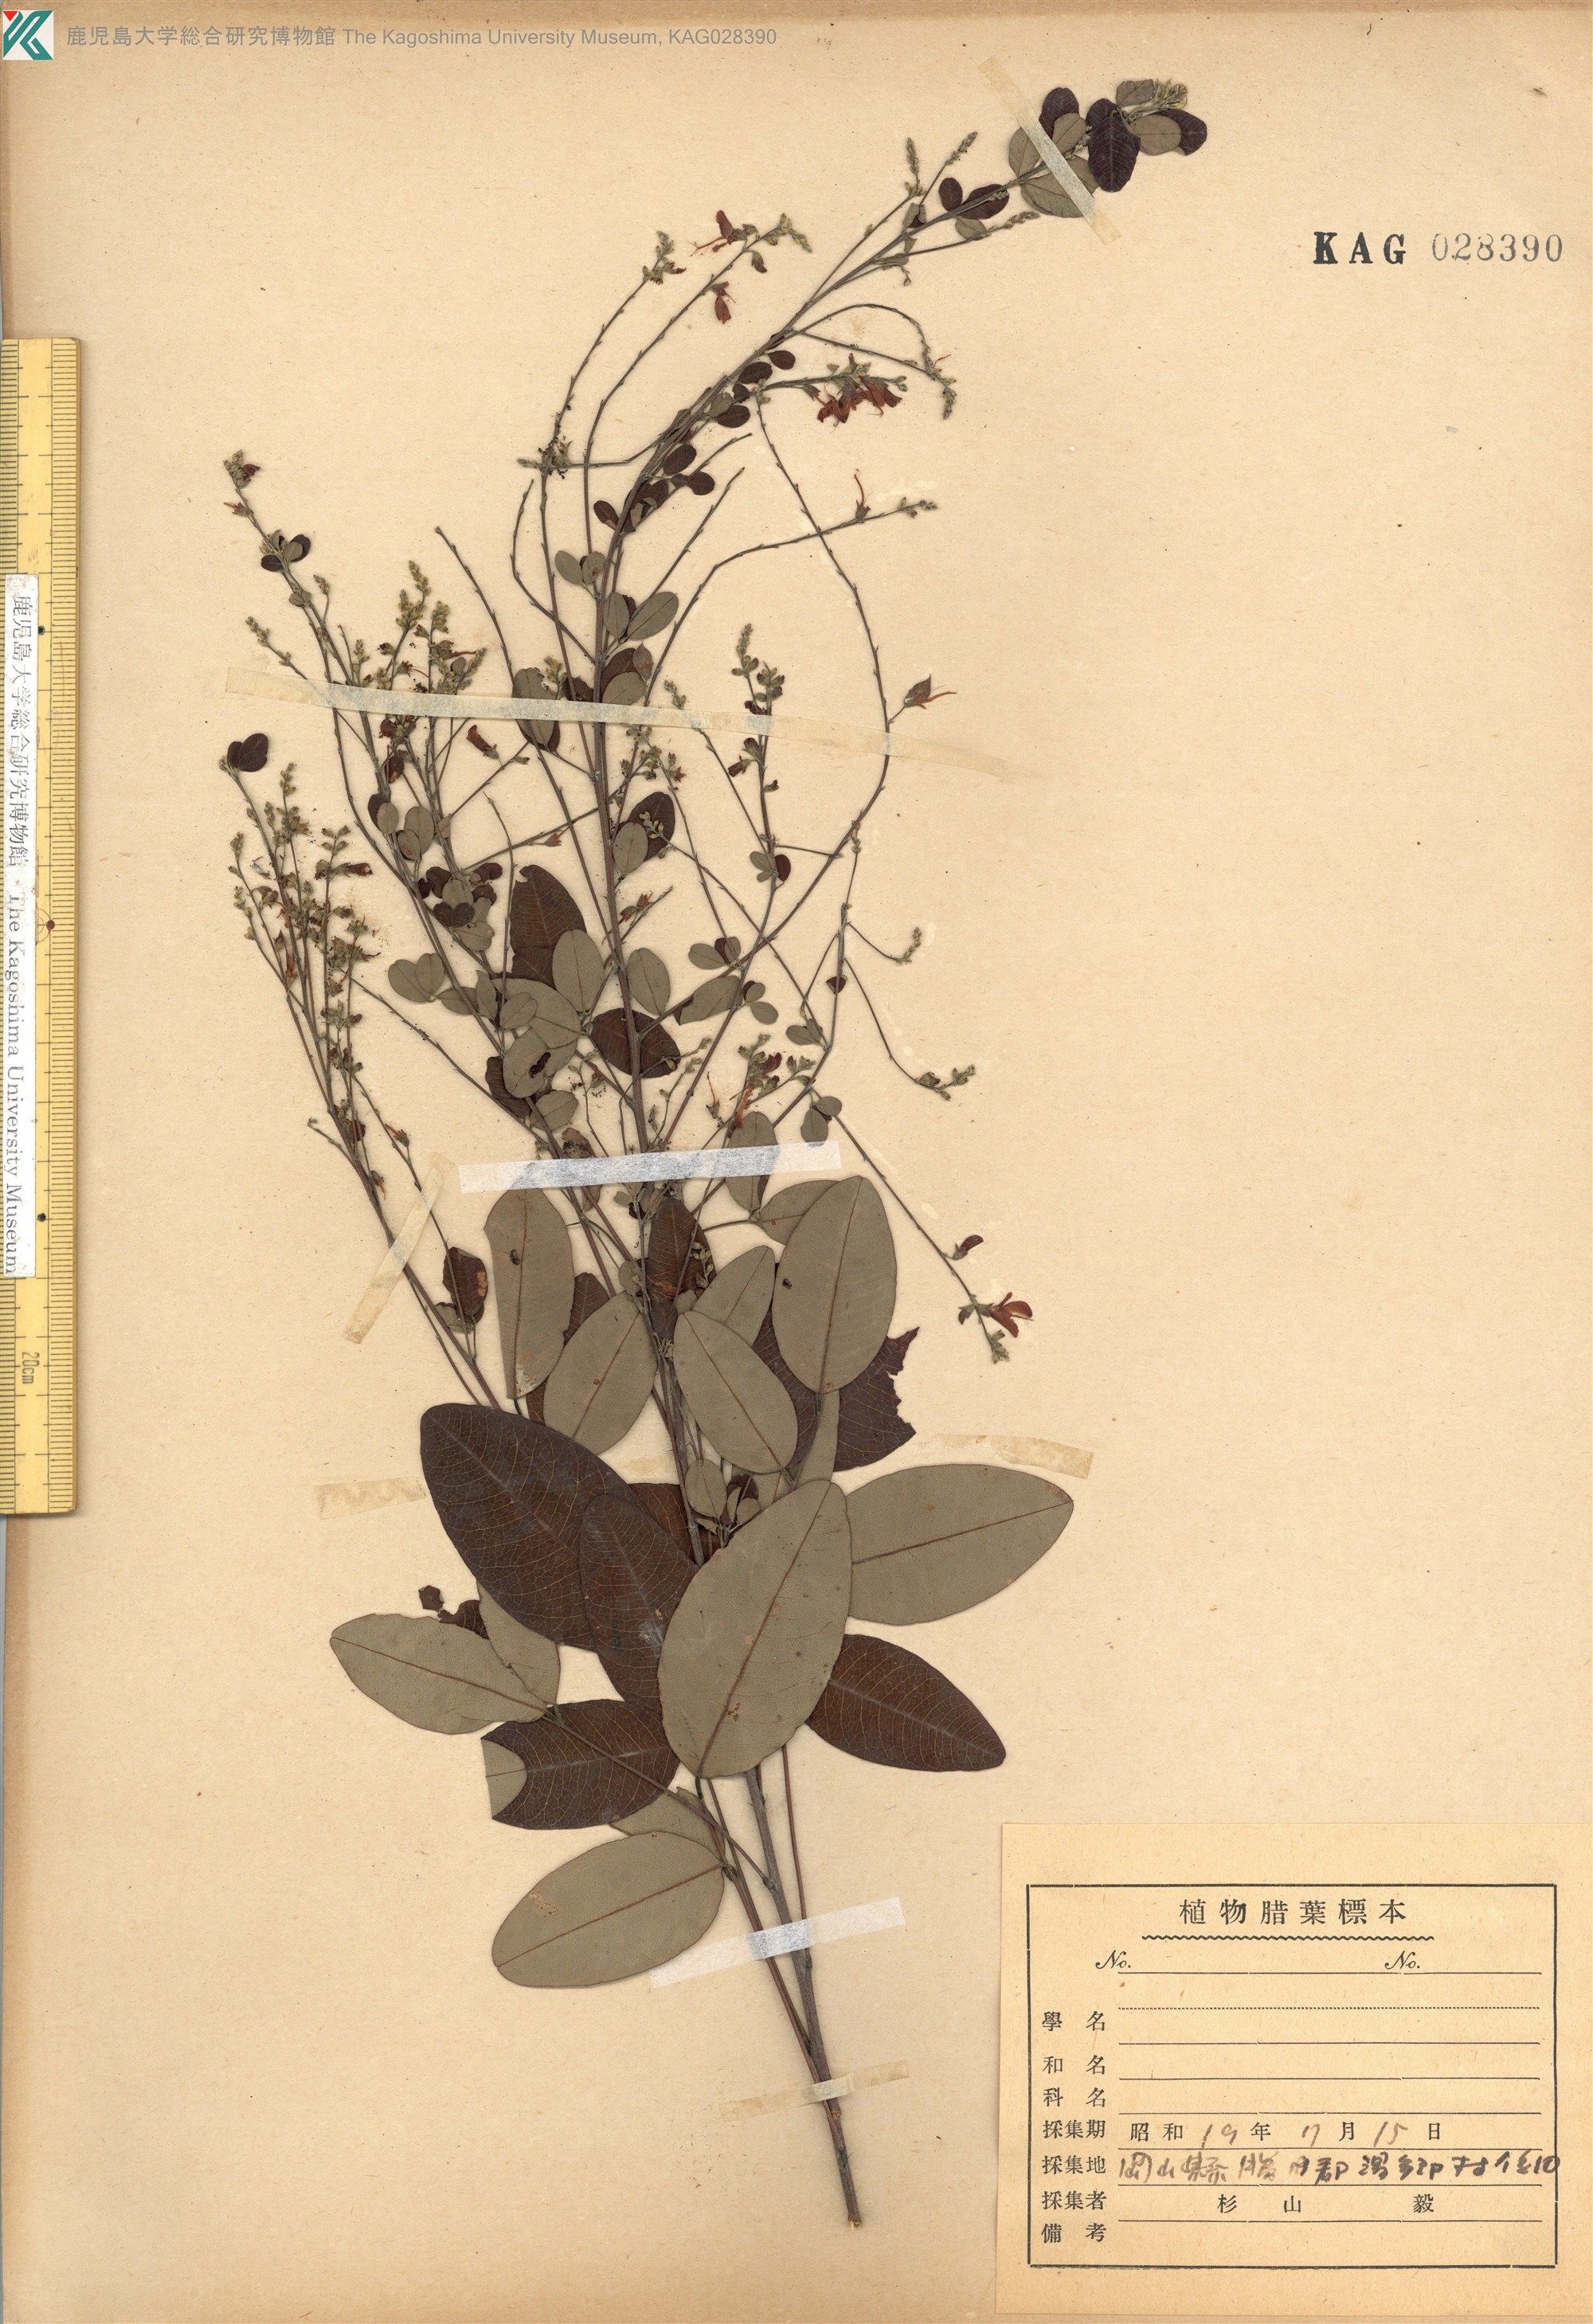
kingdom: Plantae
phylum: Tracheophyta
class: Magnoliopsida
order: Fabales
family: Fabaceae
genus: Lespedeza
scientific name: Lespedeza homoloba
